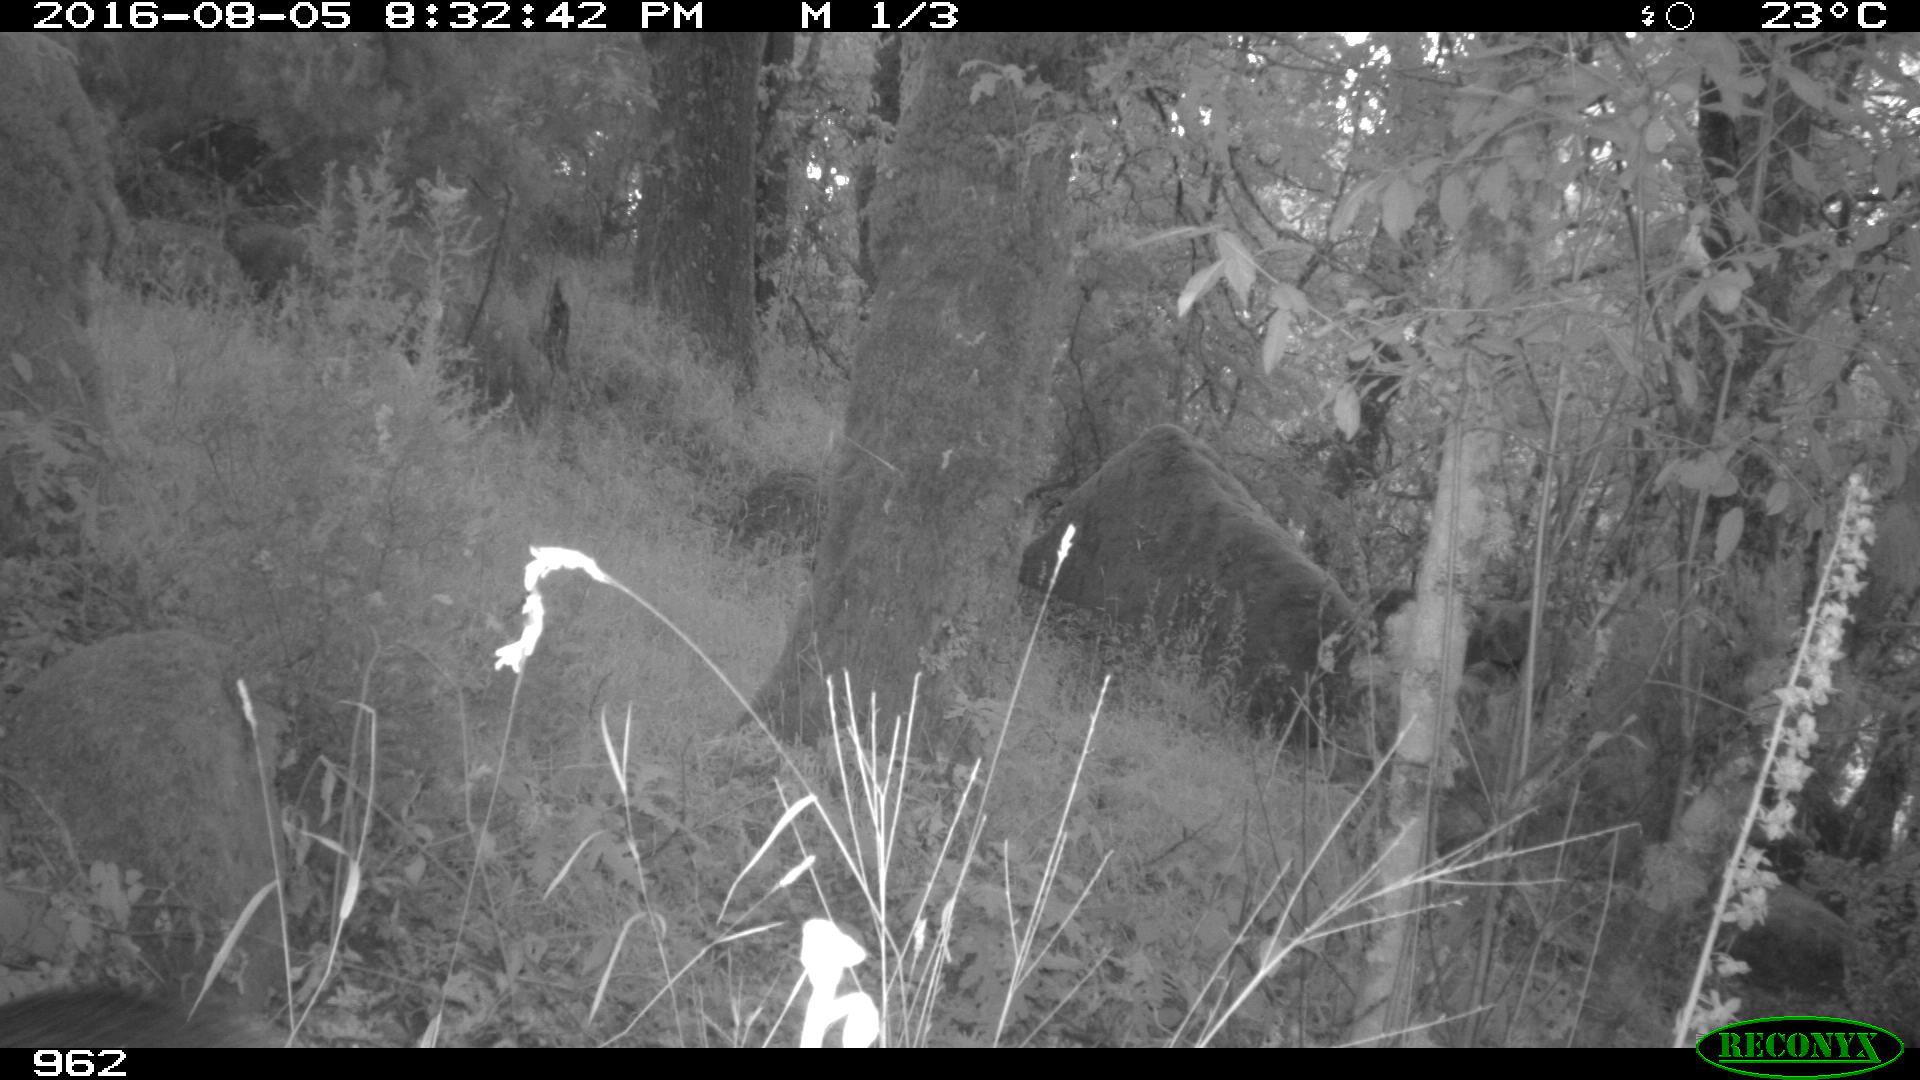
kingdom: Animalia
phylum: Chordata
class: Mammalia
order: Artiodactyla
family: Suidae
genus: Sus
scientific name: Sus scrofa
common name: Wild boar
